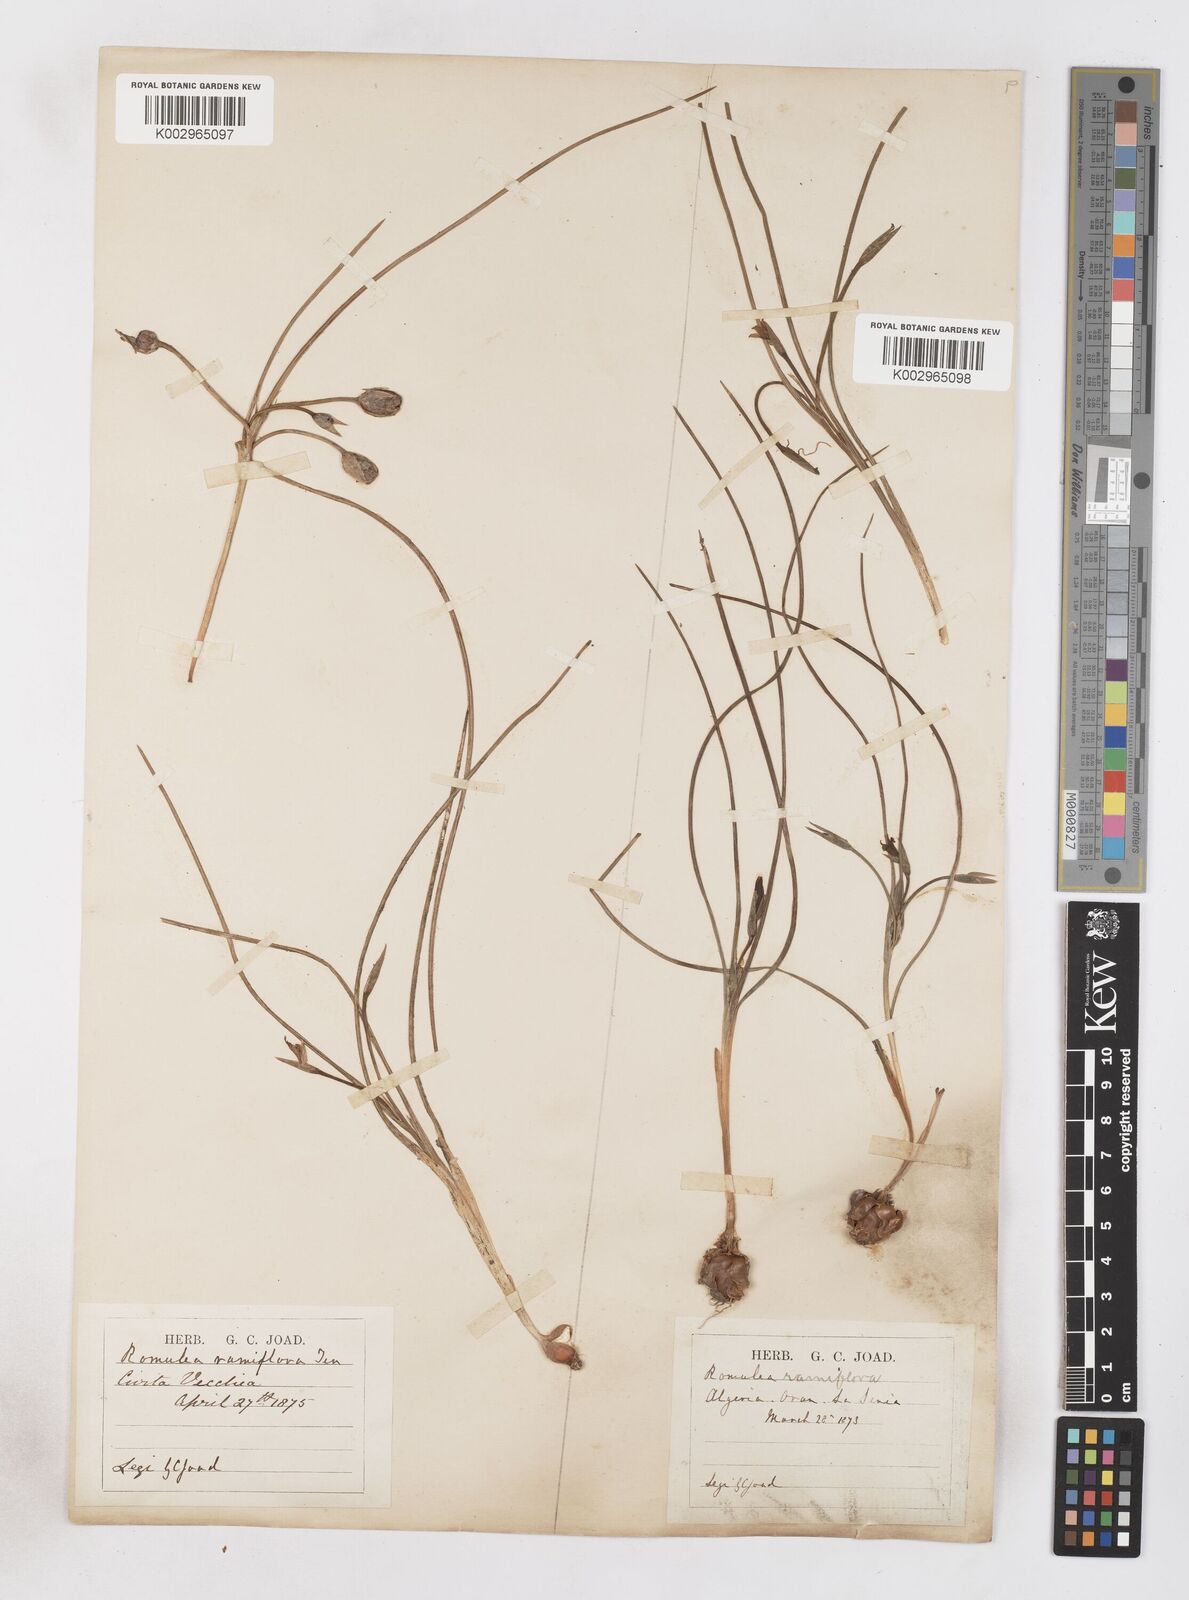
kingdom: Plantae
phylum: Tracheophyta
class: Liliopsida
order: Asparagales
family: Iridaceae
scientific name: Iridaceae
